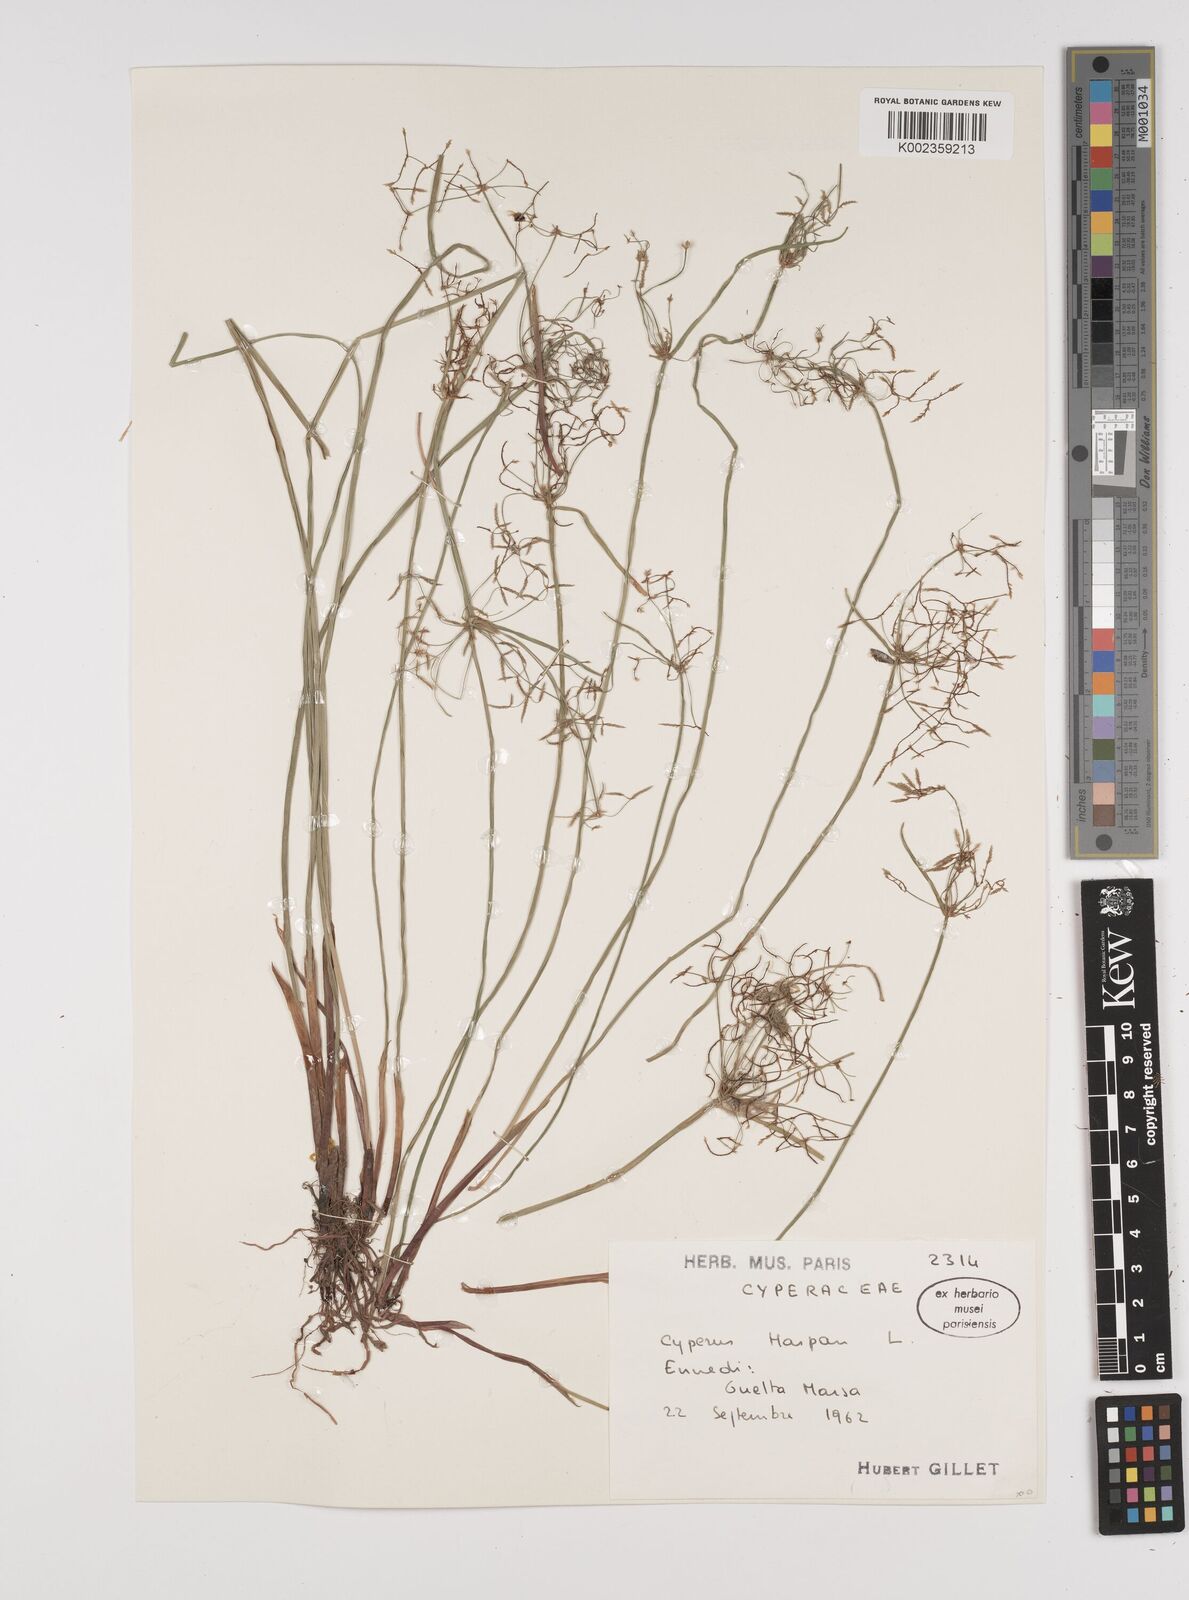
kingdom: Plantae
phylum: Tracheophyta
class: Liliopsida
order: Poales
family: Cyperaceae
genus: Cyperus
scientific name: Cyperus haspan
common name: Haspan flatsedge
